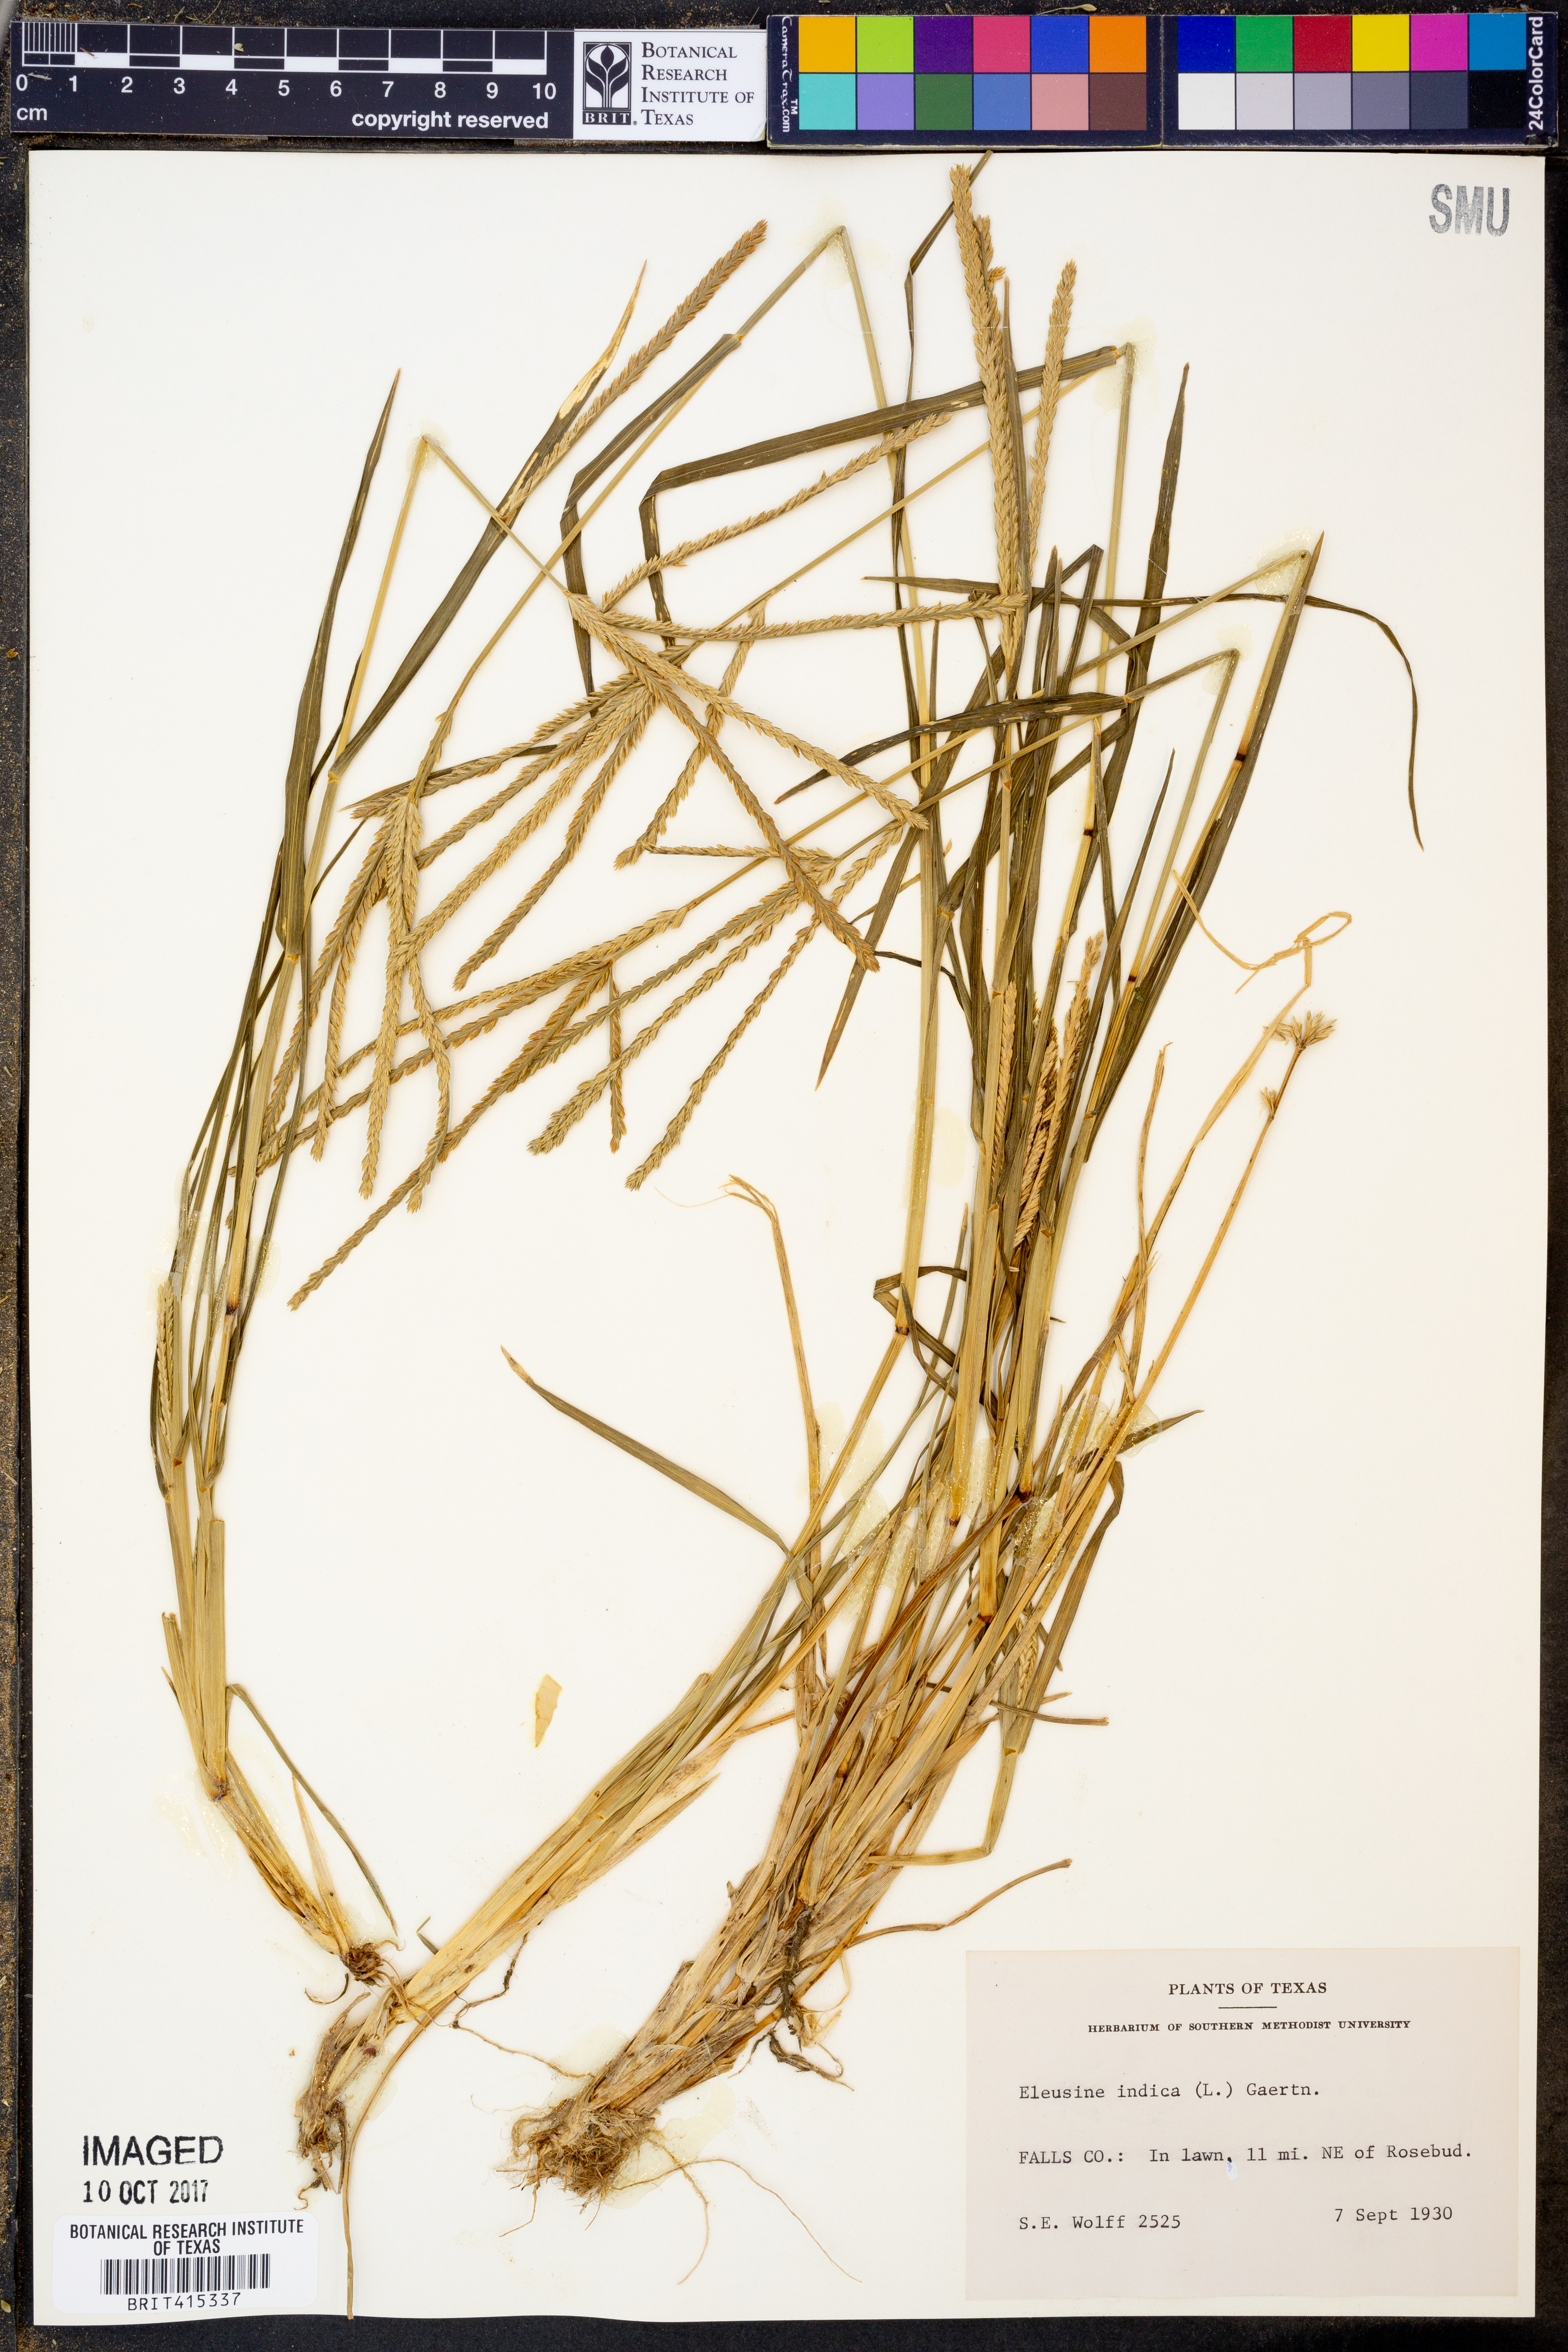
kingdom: Plantae
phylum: Tracheophyta
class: Liliopsida
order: Poales
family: Poaceae
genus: Eleusine
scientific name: Eleusine indica
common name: Yard-grass
